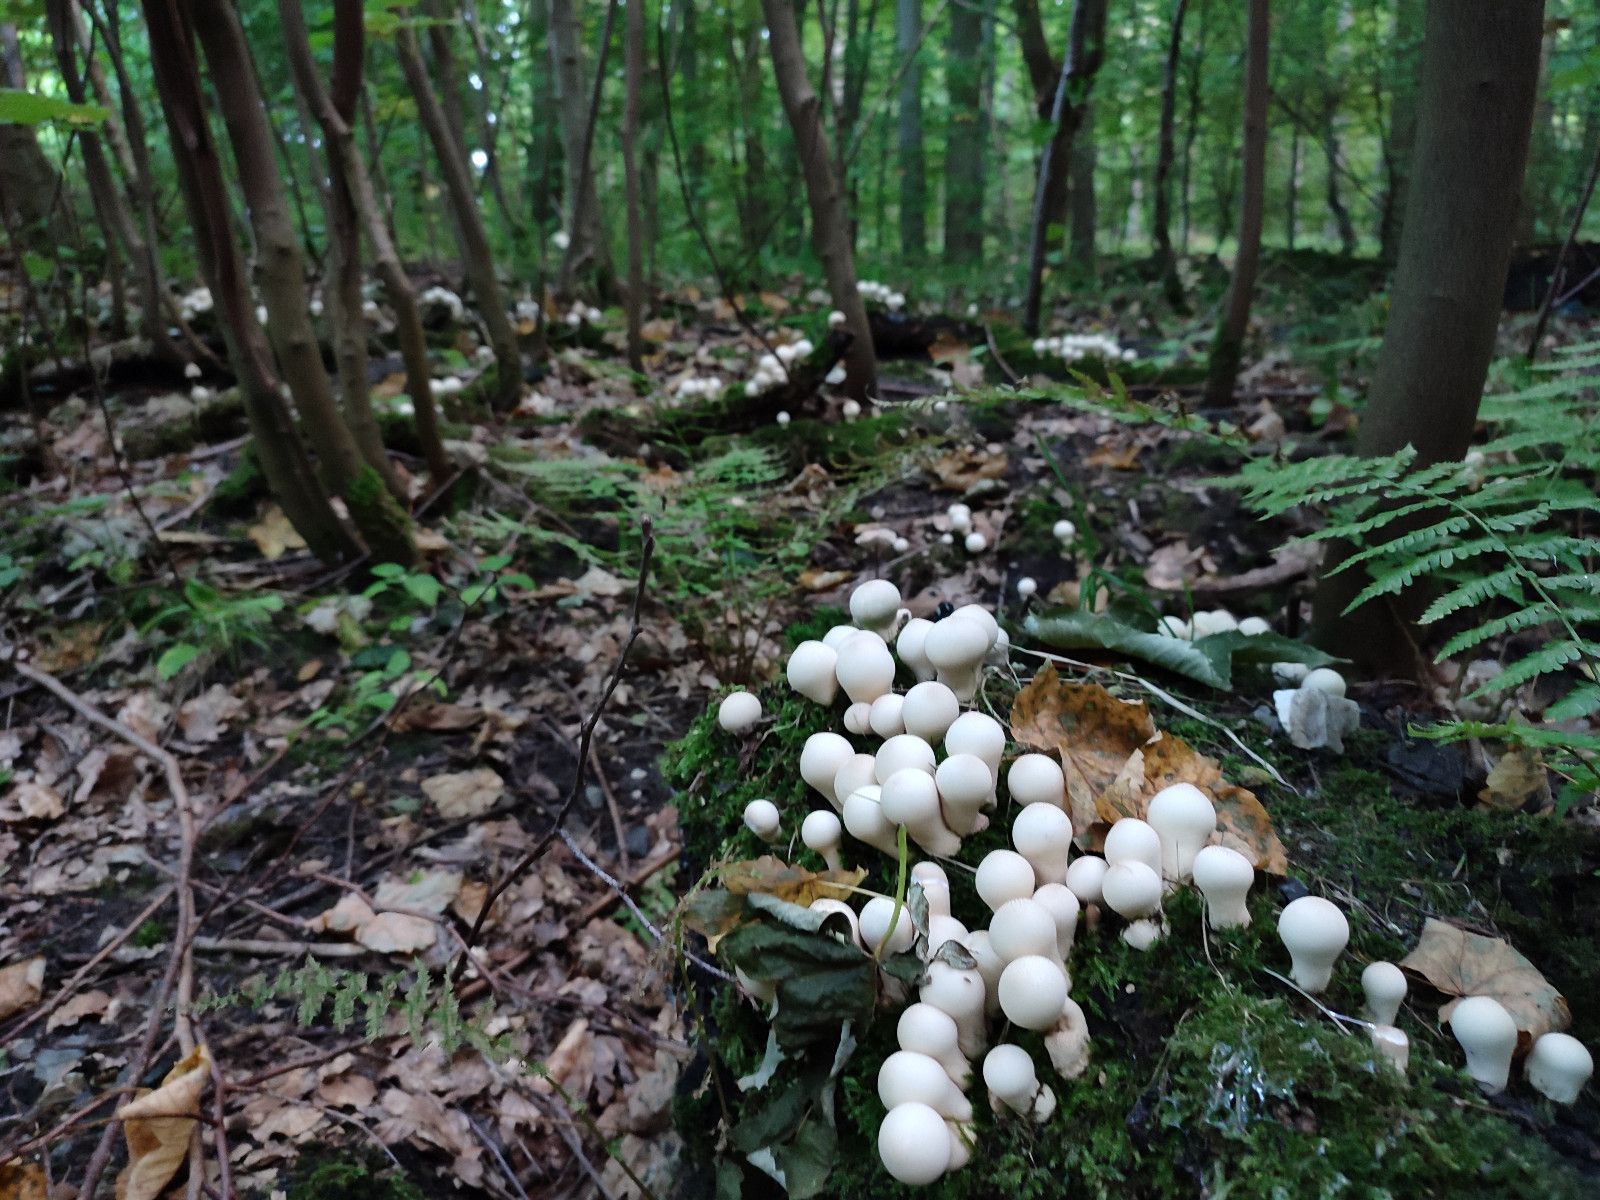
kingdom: Fungi
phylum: Basidiomycota
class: Agaricomycetes
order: Agaricales
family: Lycoperdaceae
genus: Apioperdon
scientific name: Apioperdon pyriforme
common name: pære-støvbold
